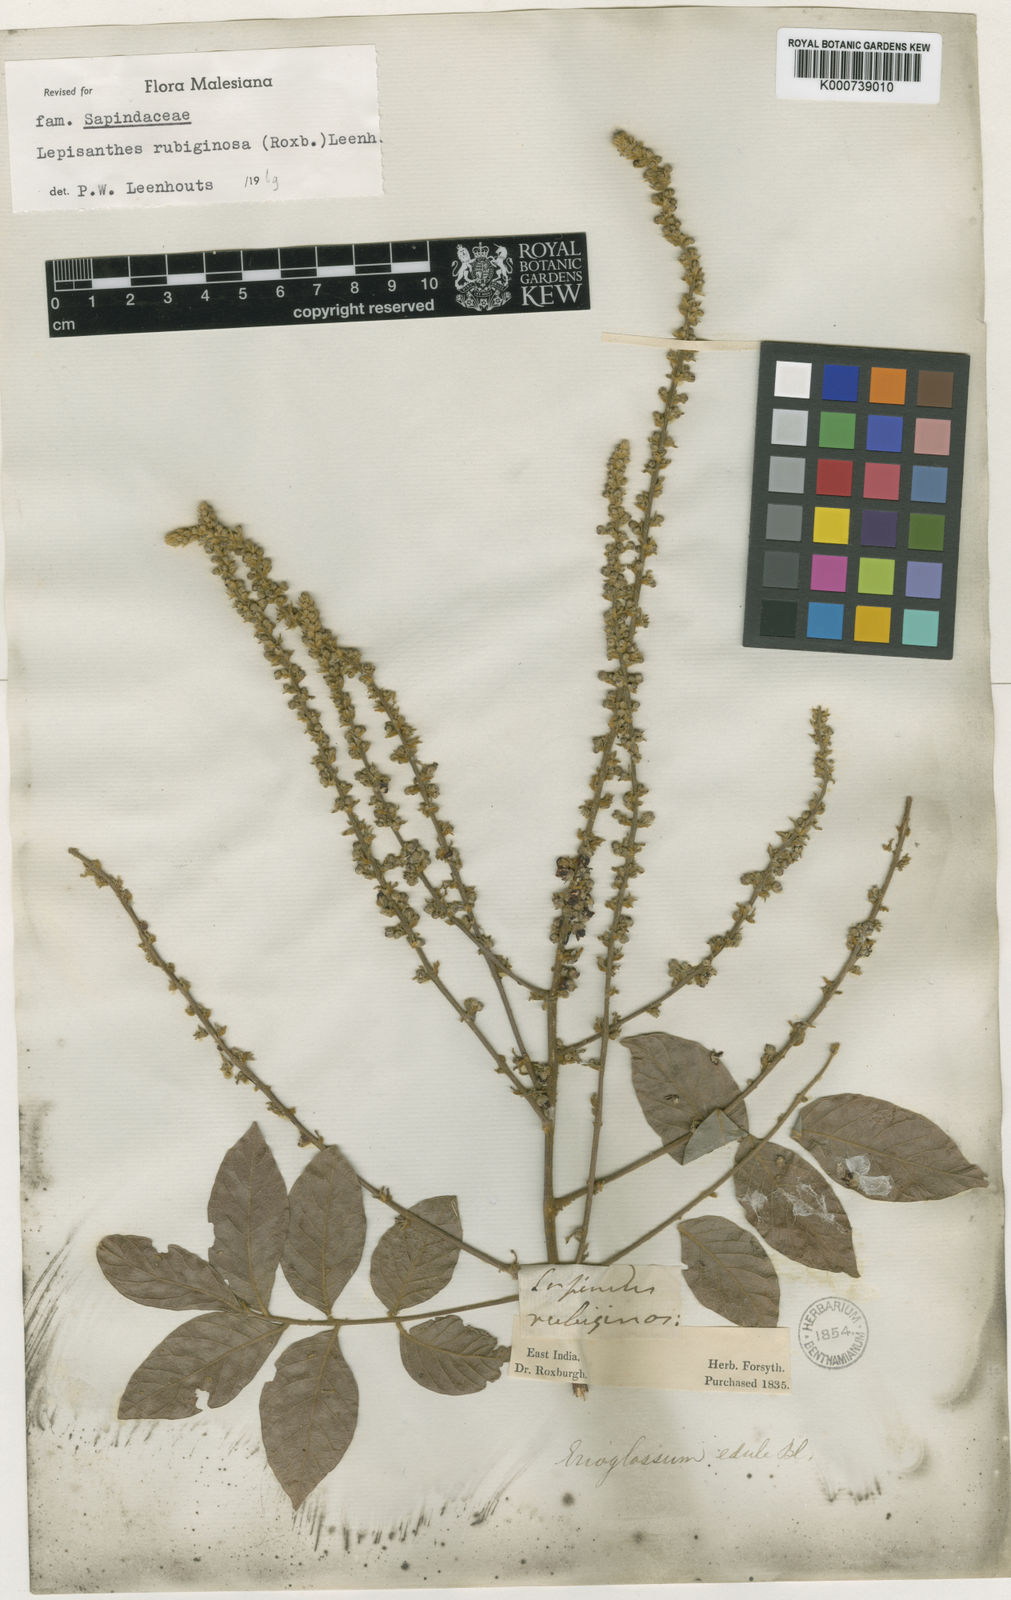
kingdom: Plantae
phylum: Tracheophyta
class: Magnoliopsida
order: Sapindales
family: Sapindaceae
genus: Lepisanthes
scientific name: Lepisanthes rubiginosa
